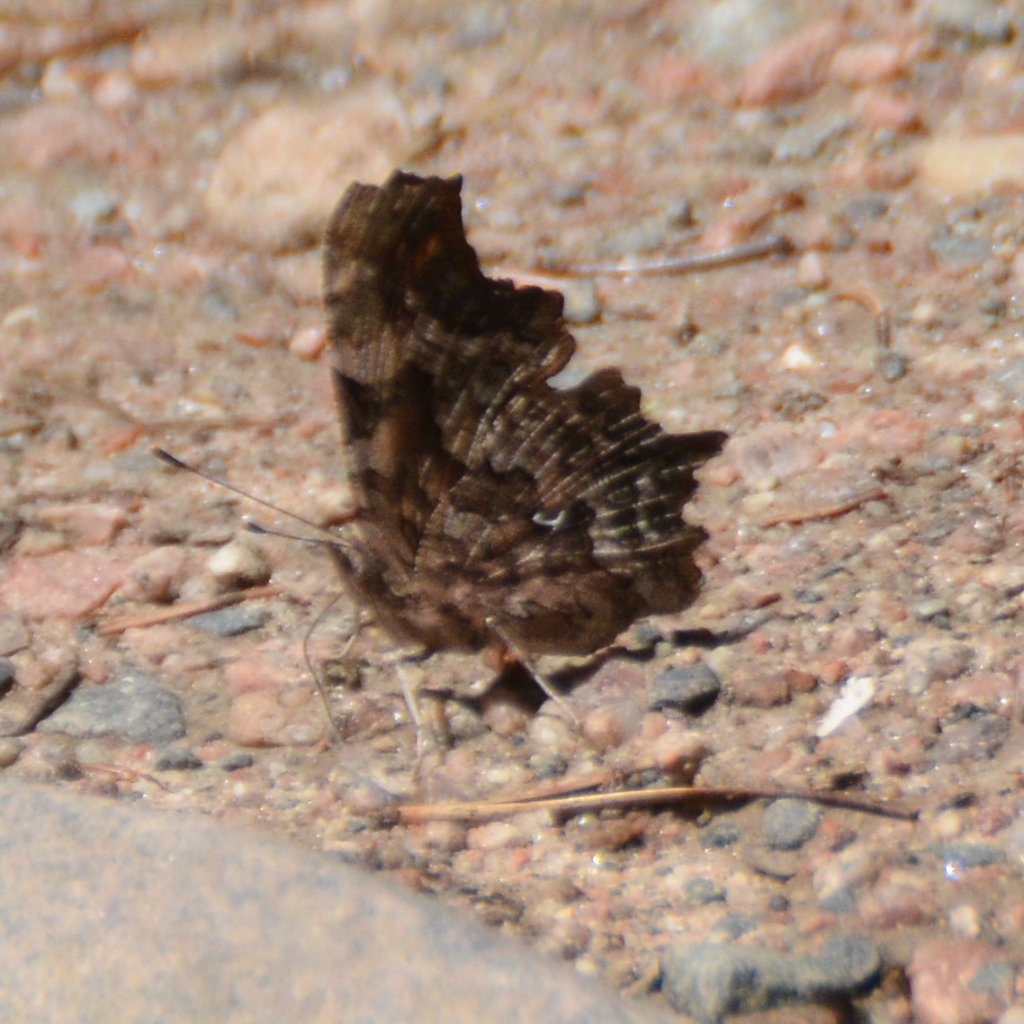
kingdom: Animalia
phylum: Arthropoda
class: Insecta
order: Lepidoptera
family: Nymphalidae
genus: Polygonia
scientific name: Polygonia faunus
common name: Green Comma
